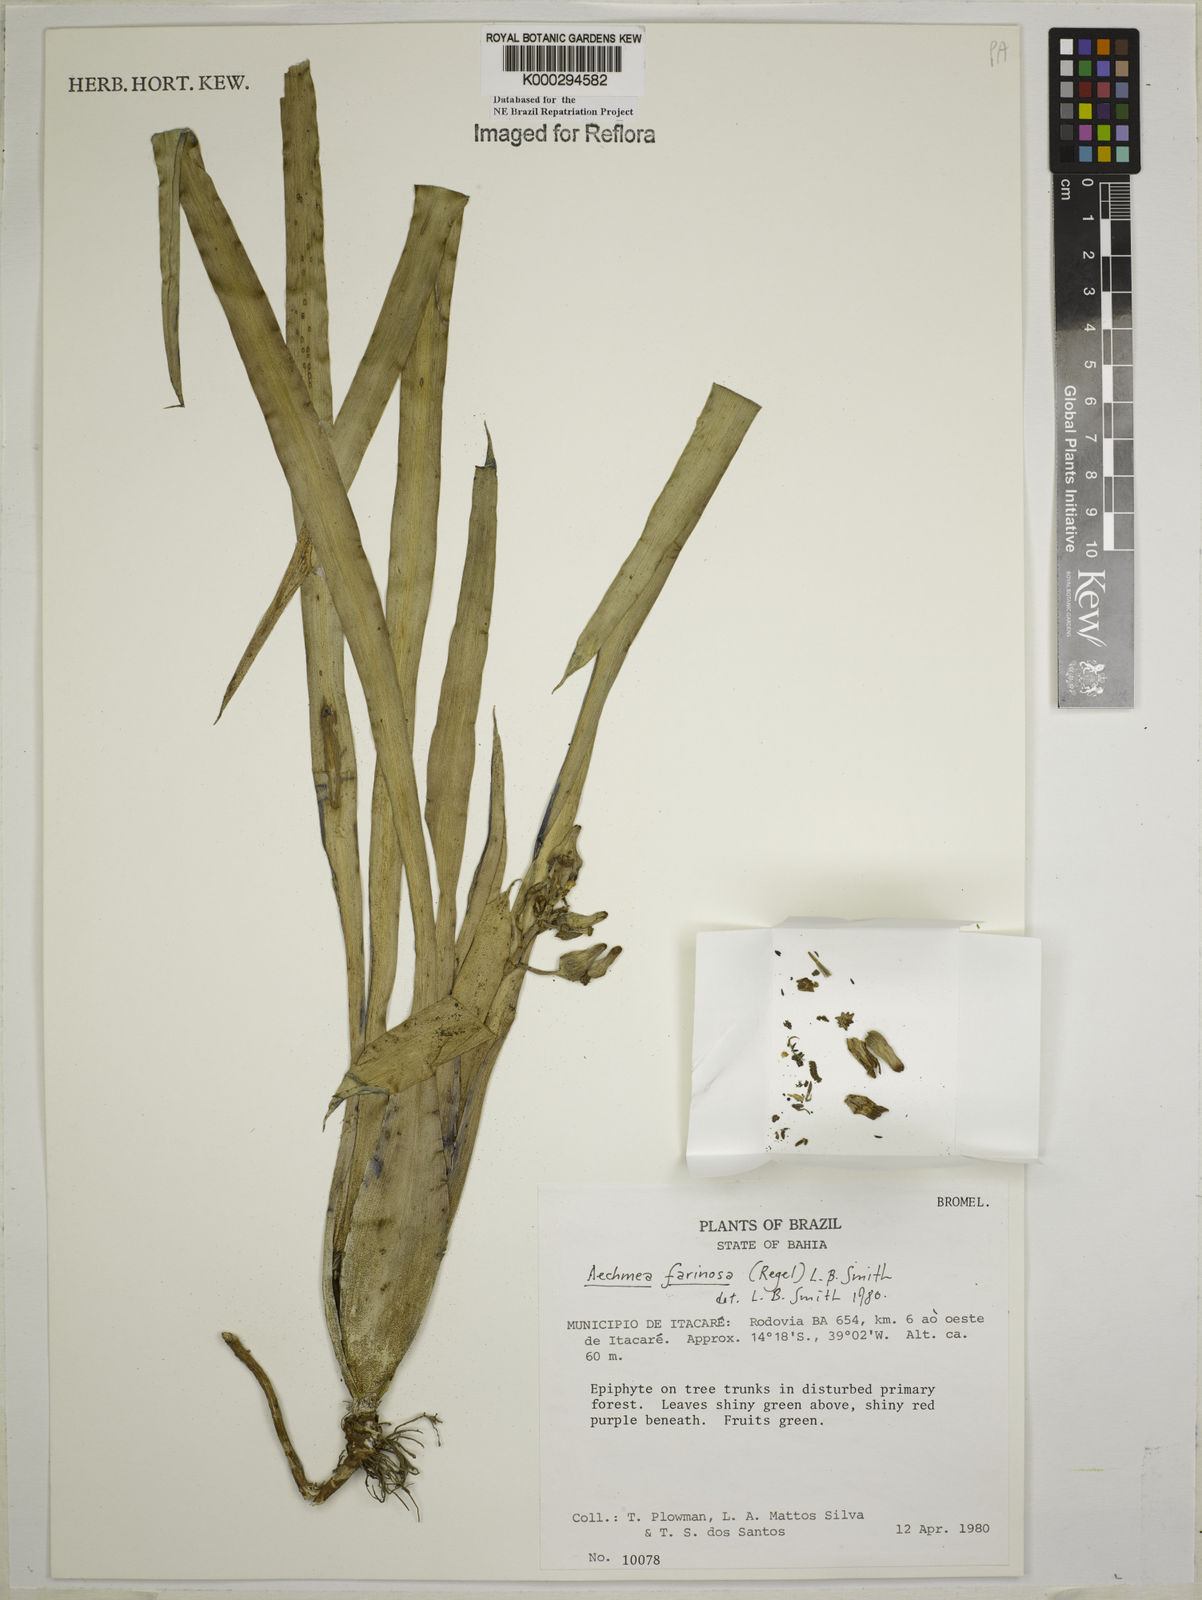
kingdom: Plantae
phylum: Tracheophyta
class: Liliopsida
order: Poales
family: Bromeliaceae
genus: Aechmea
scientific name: Aechmea farinosa
